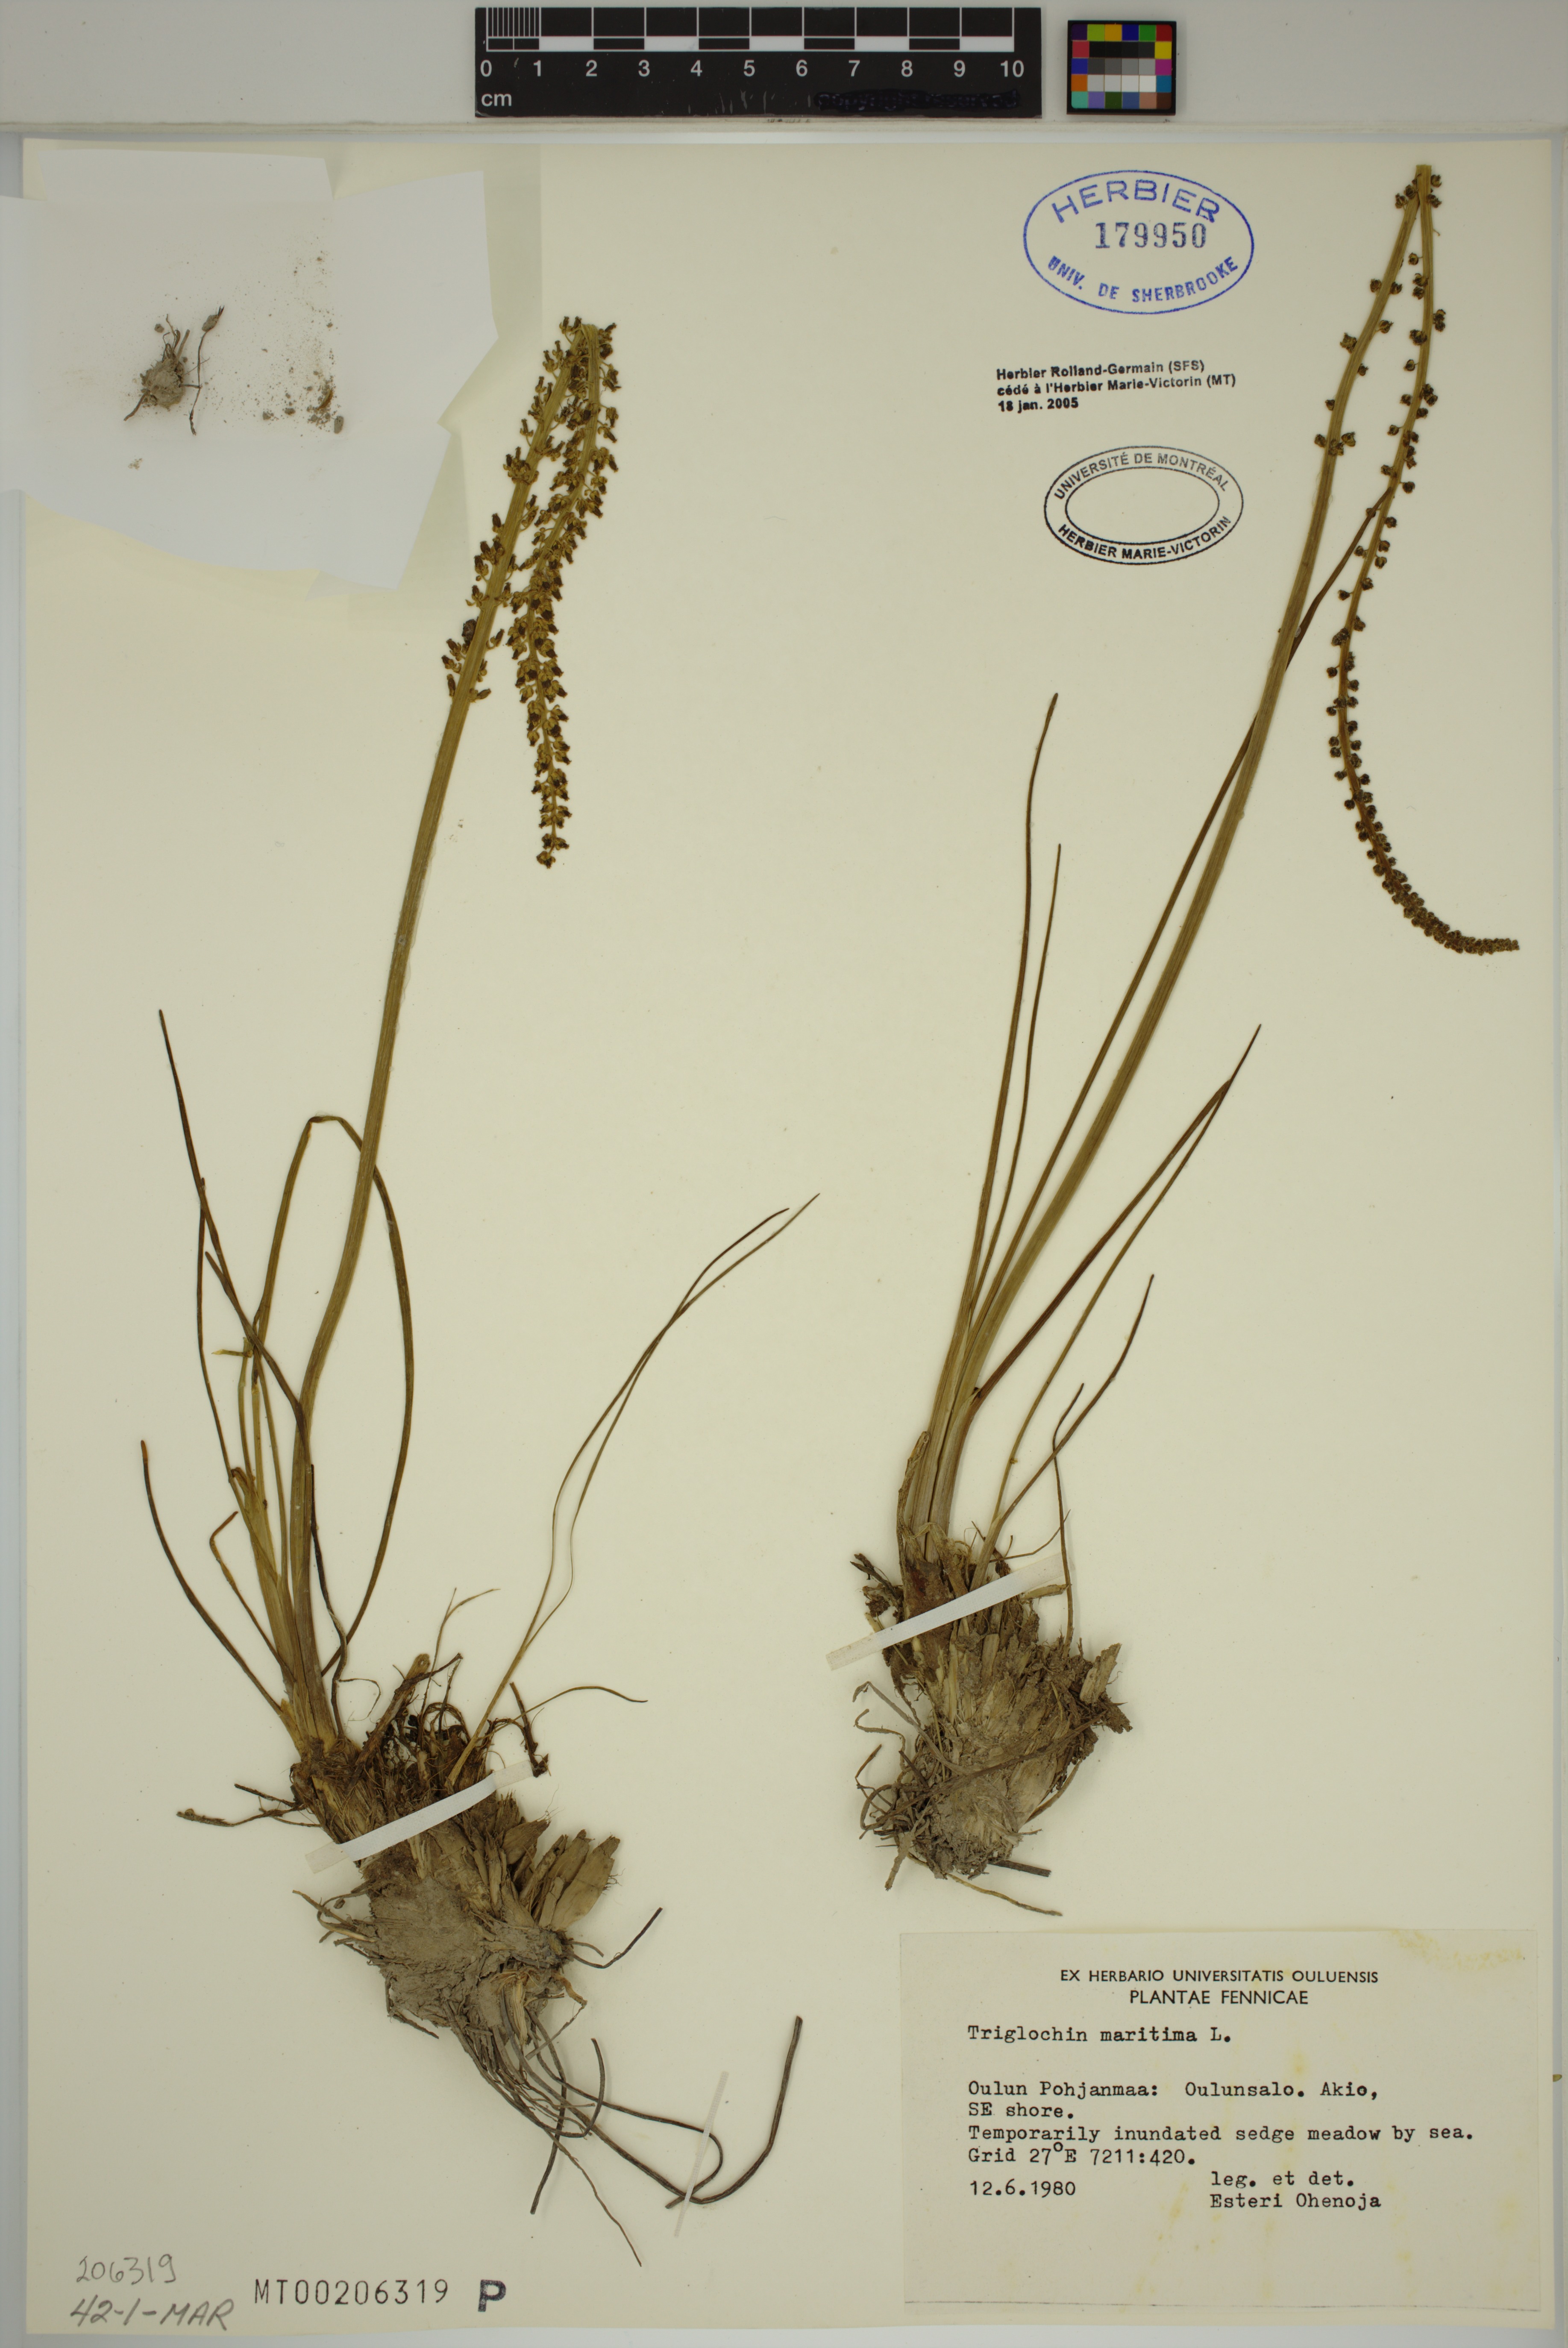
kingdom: Plantae
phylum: Tracheophyta
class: Liliopsida
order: Alismatales
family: Juncaginaceae
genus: Triglochin
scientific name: Triglochin maritima
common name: Sea arrowgrass
